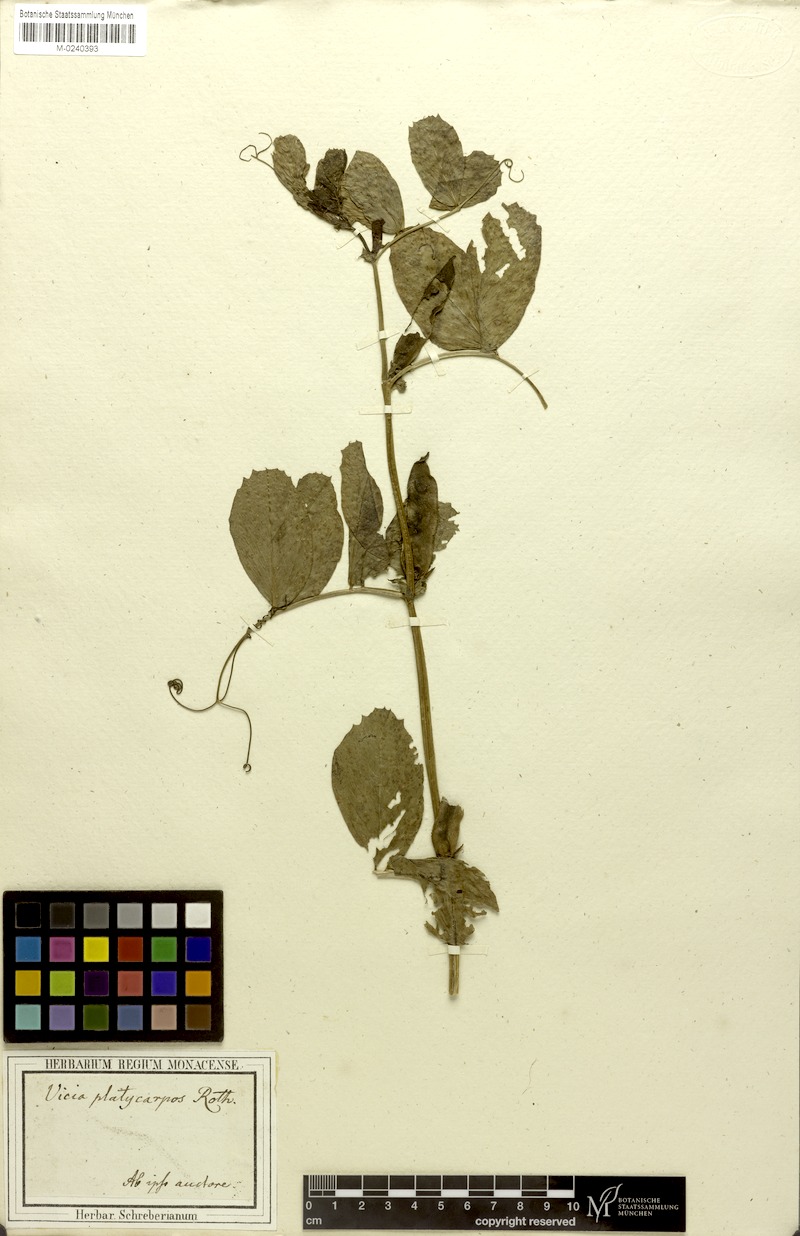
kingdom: Plantae
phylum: Tracheophyta
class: Magnoliopsida
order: Fabales
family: Fabaceae
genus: Vicia
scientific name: Vicia narbonensis
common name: Narbonne vetch
